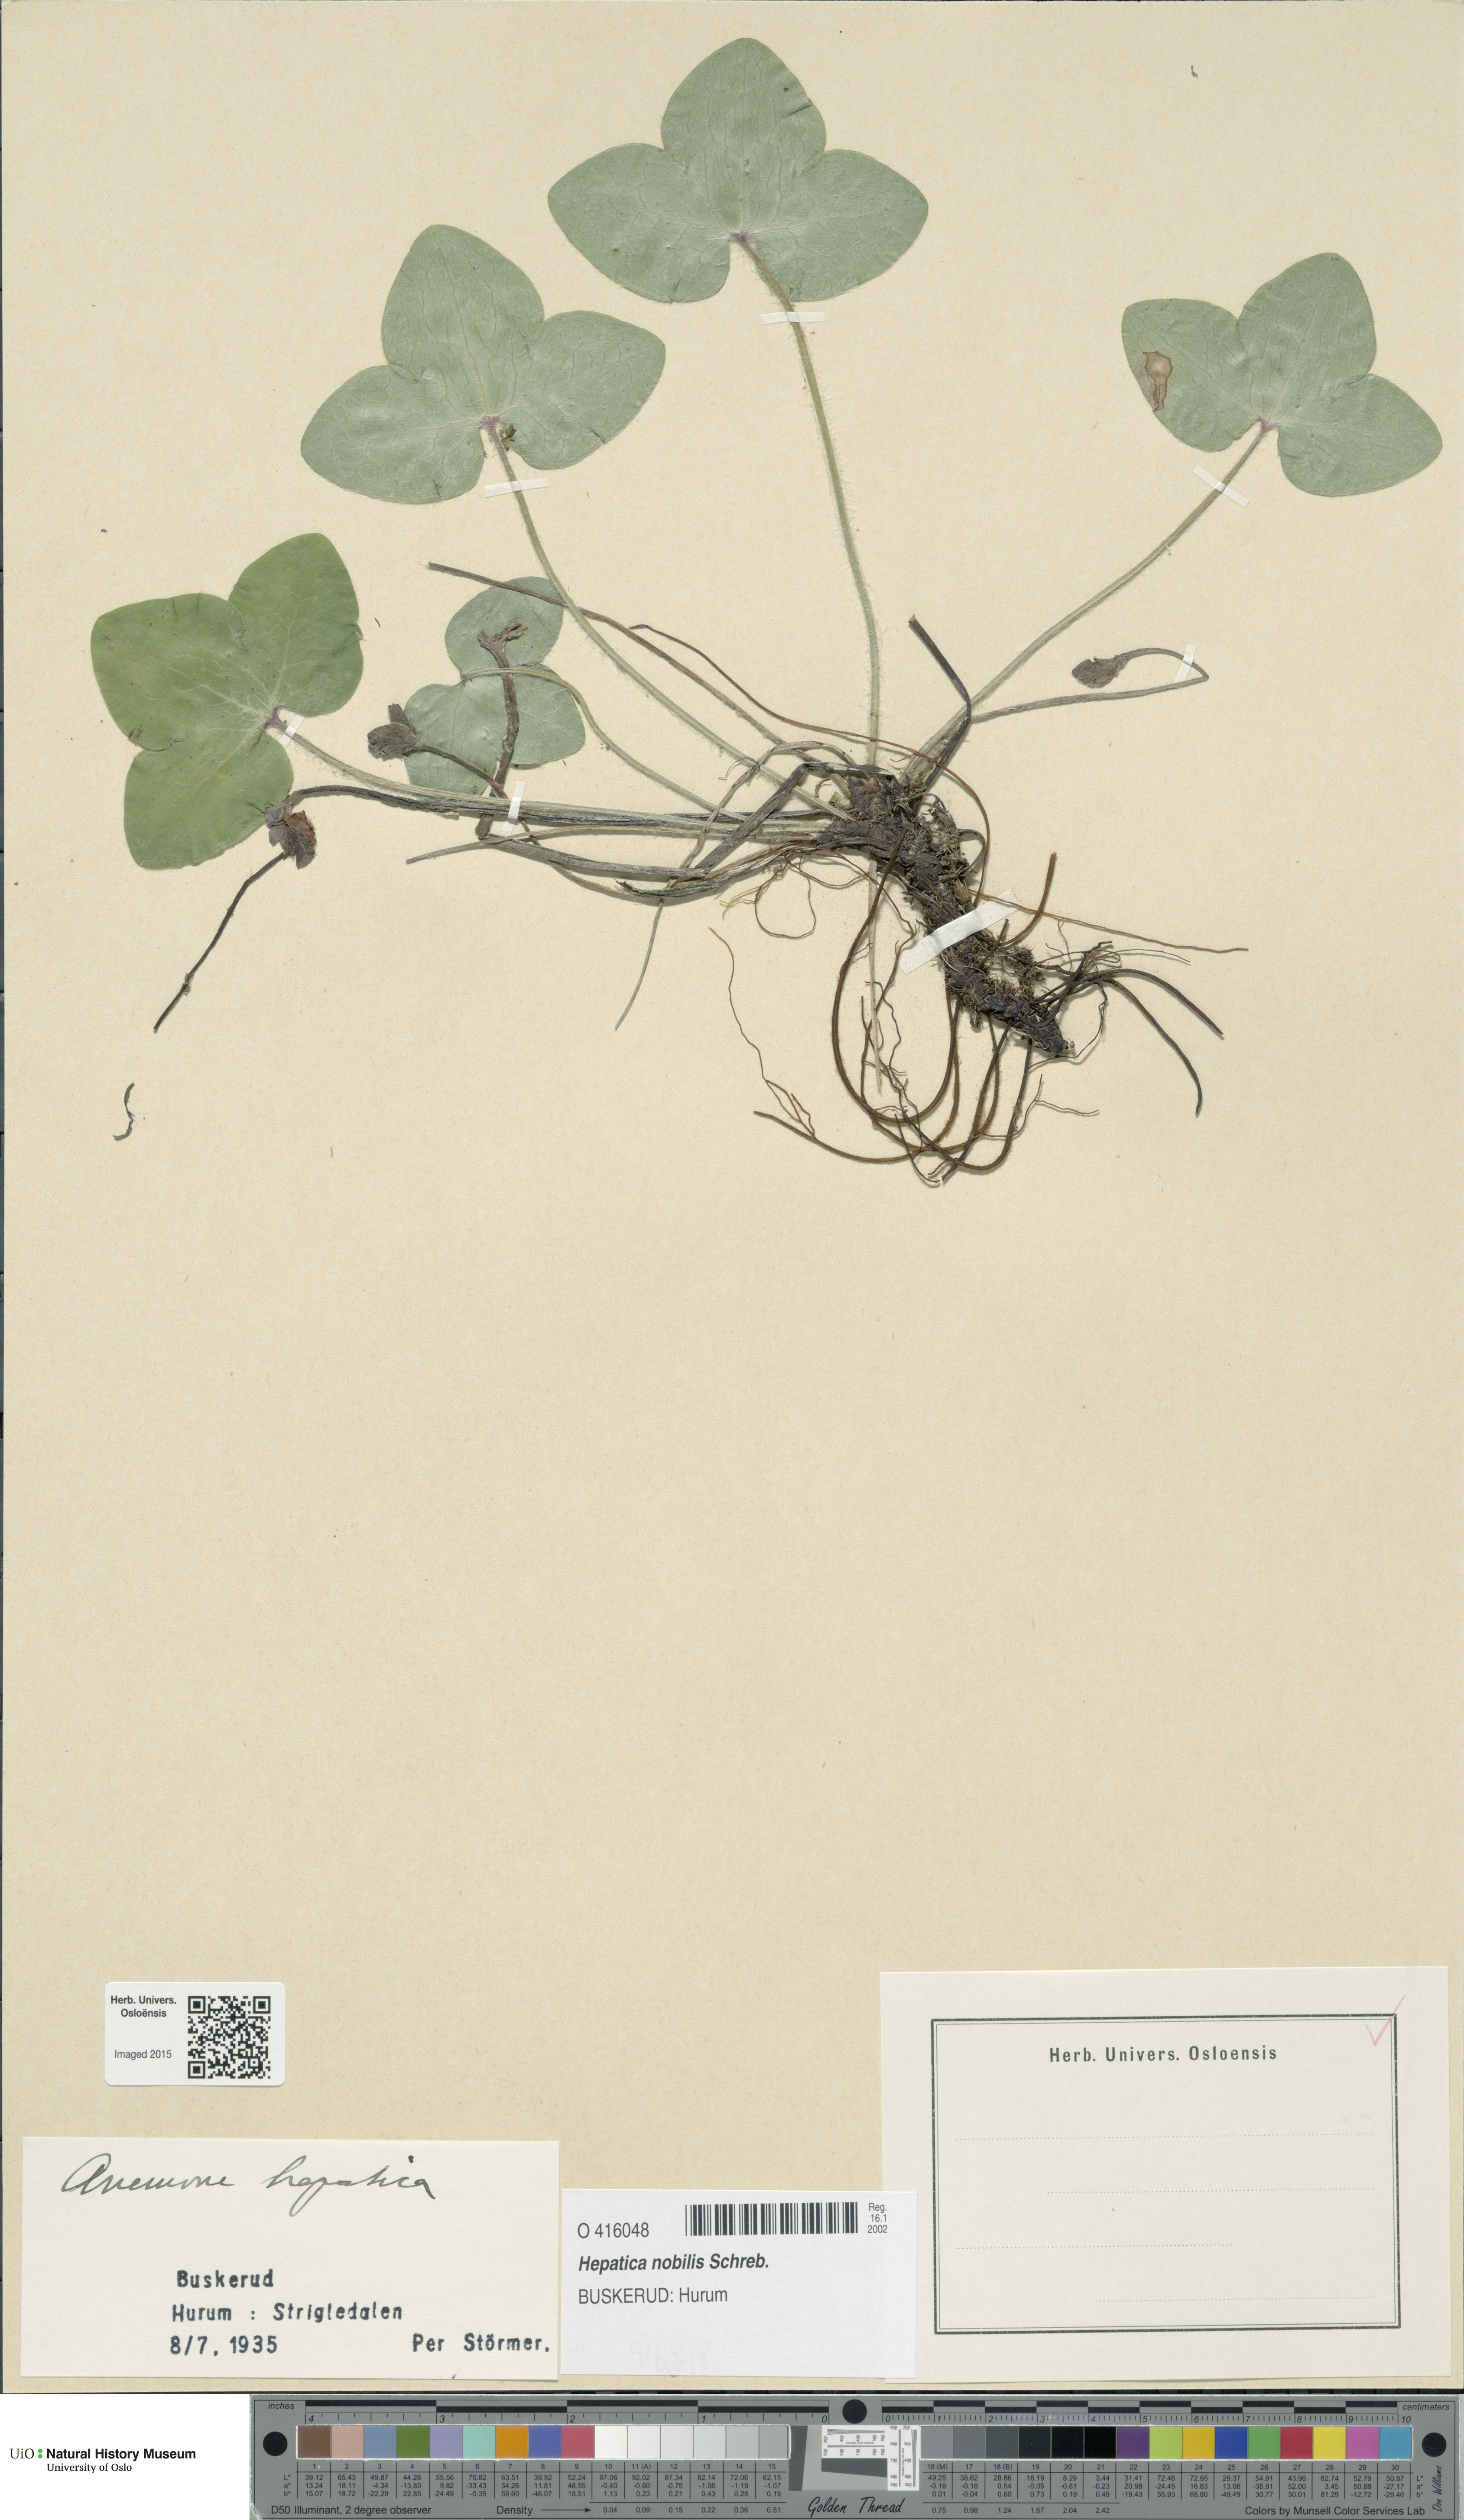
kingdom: Plantae
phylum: Tracheophyta
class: Magnoliopsida
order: Ranunculales
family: Ranunculaceae
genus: Hepatica
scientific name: Hepatica nobilis
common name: Liverleaf
